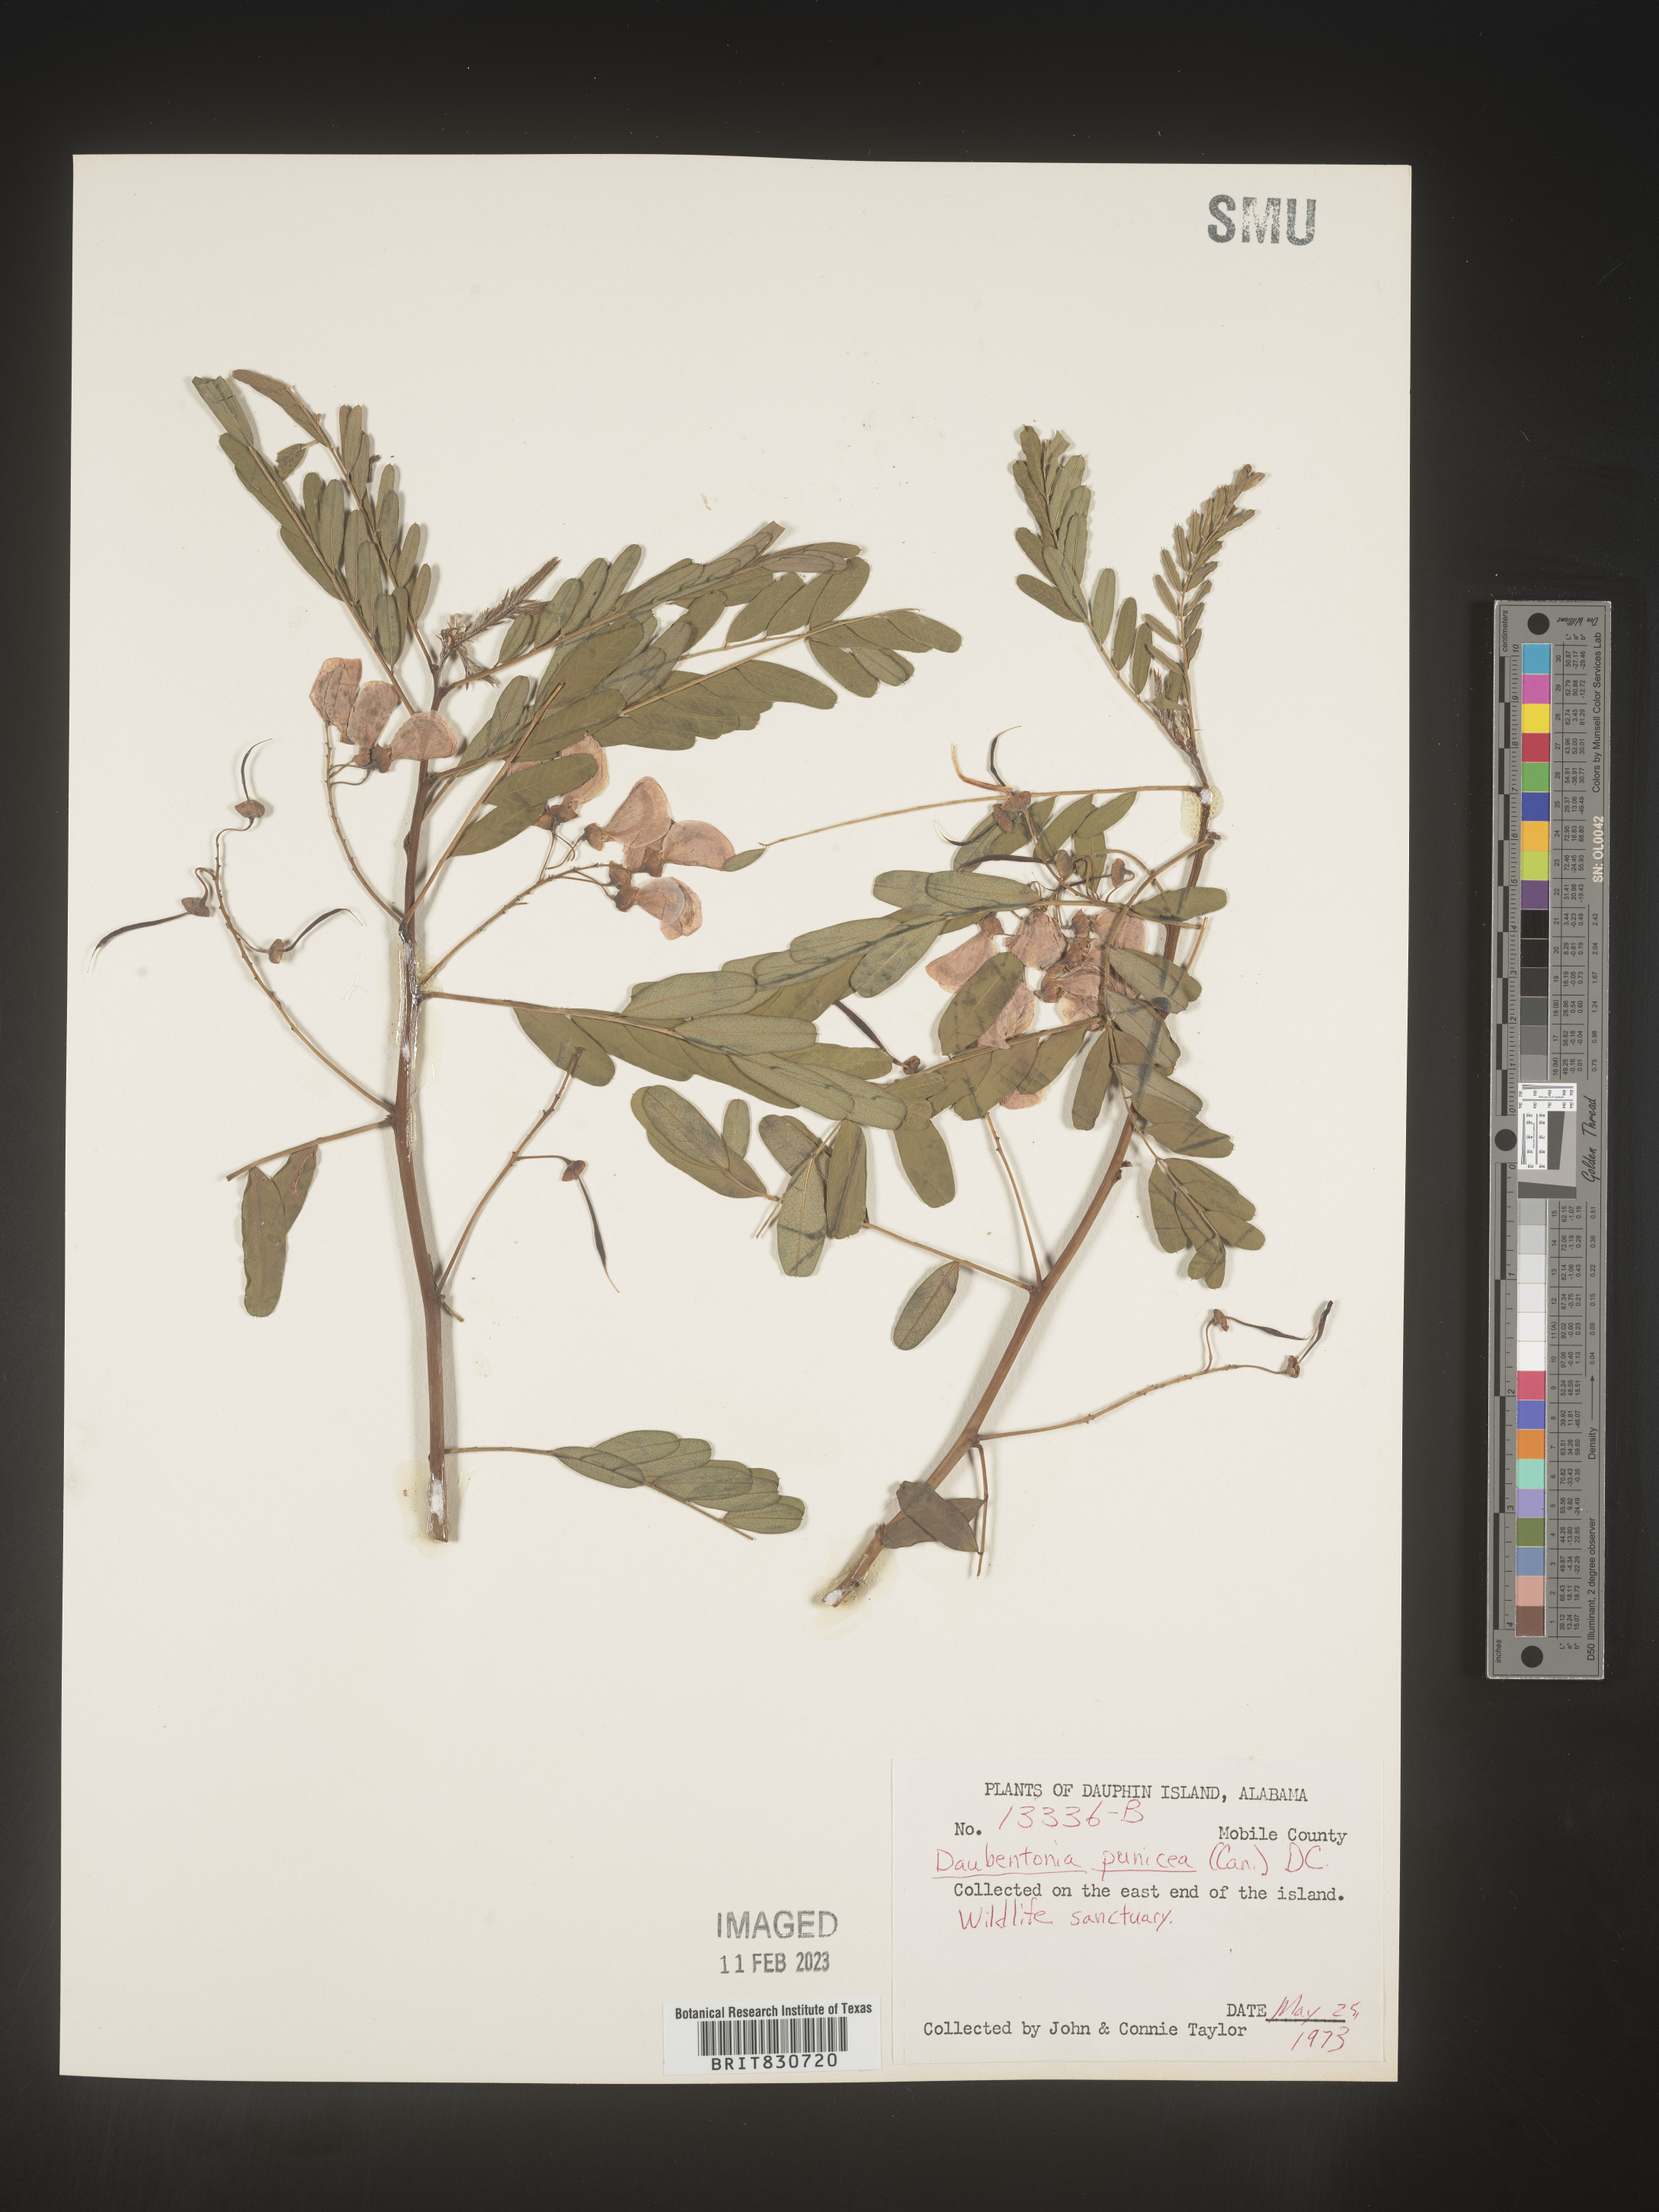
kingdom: Plantae
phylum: Tracheophyta
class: Magnoliopsida
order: Fabales
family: Fabaceae
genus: Sesbania
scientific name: Sesbania punicea
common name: Rattlebox
